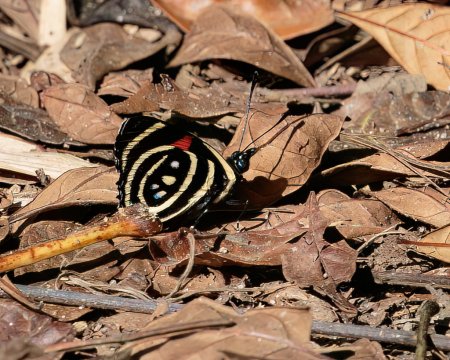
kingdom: Animalia
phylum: Arthropoda
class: Insecta
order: Lepidoptera
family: Nymphalidae
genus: Catagramma
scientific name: Catagramma Callicore hydaspes
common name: Hydaspes Eighty-Eight
